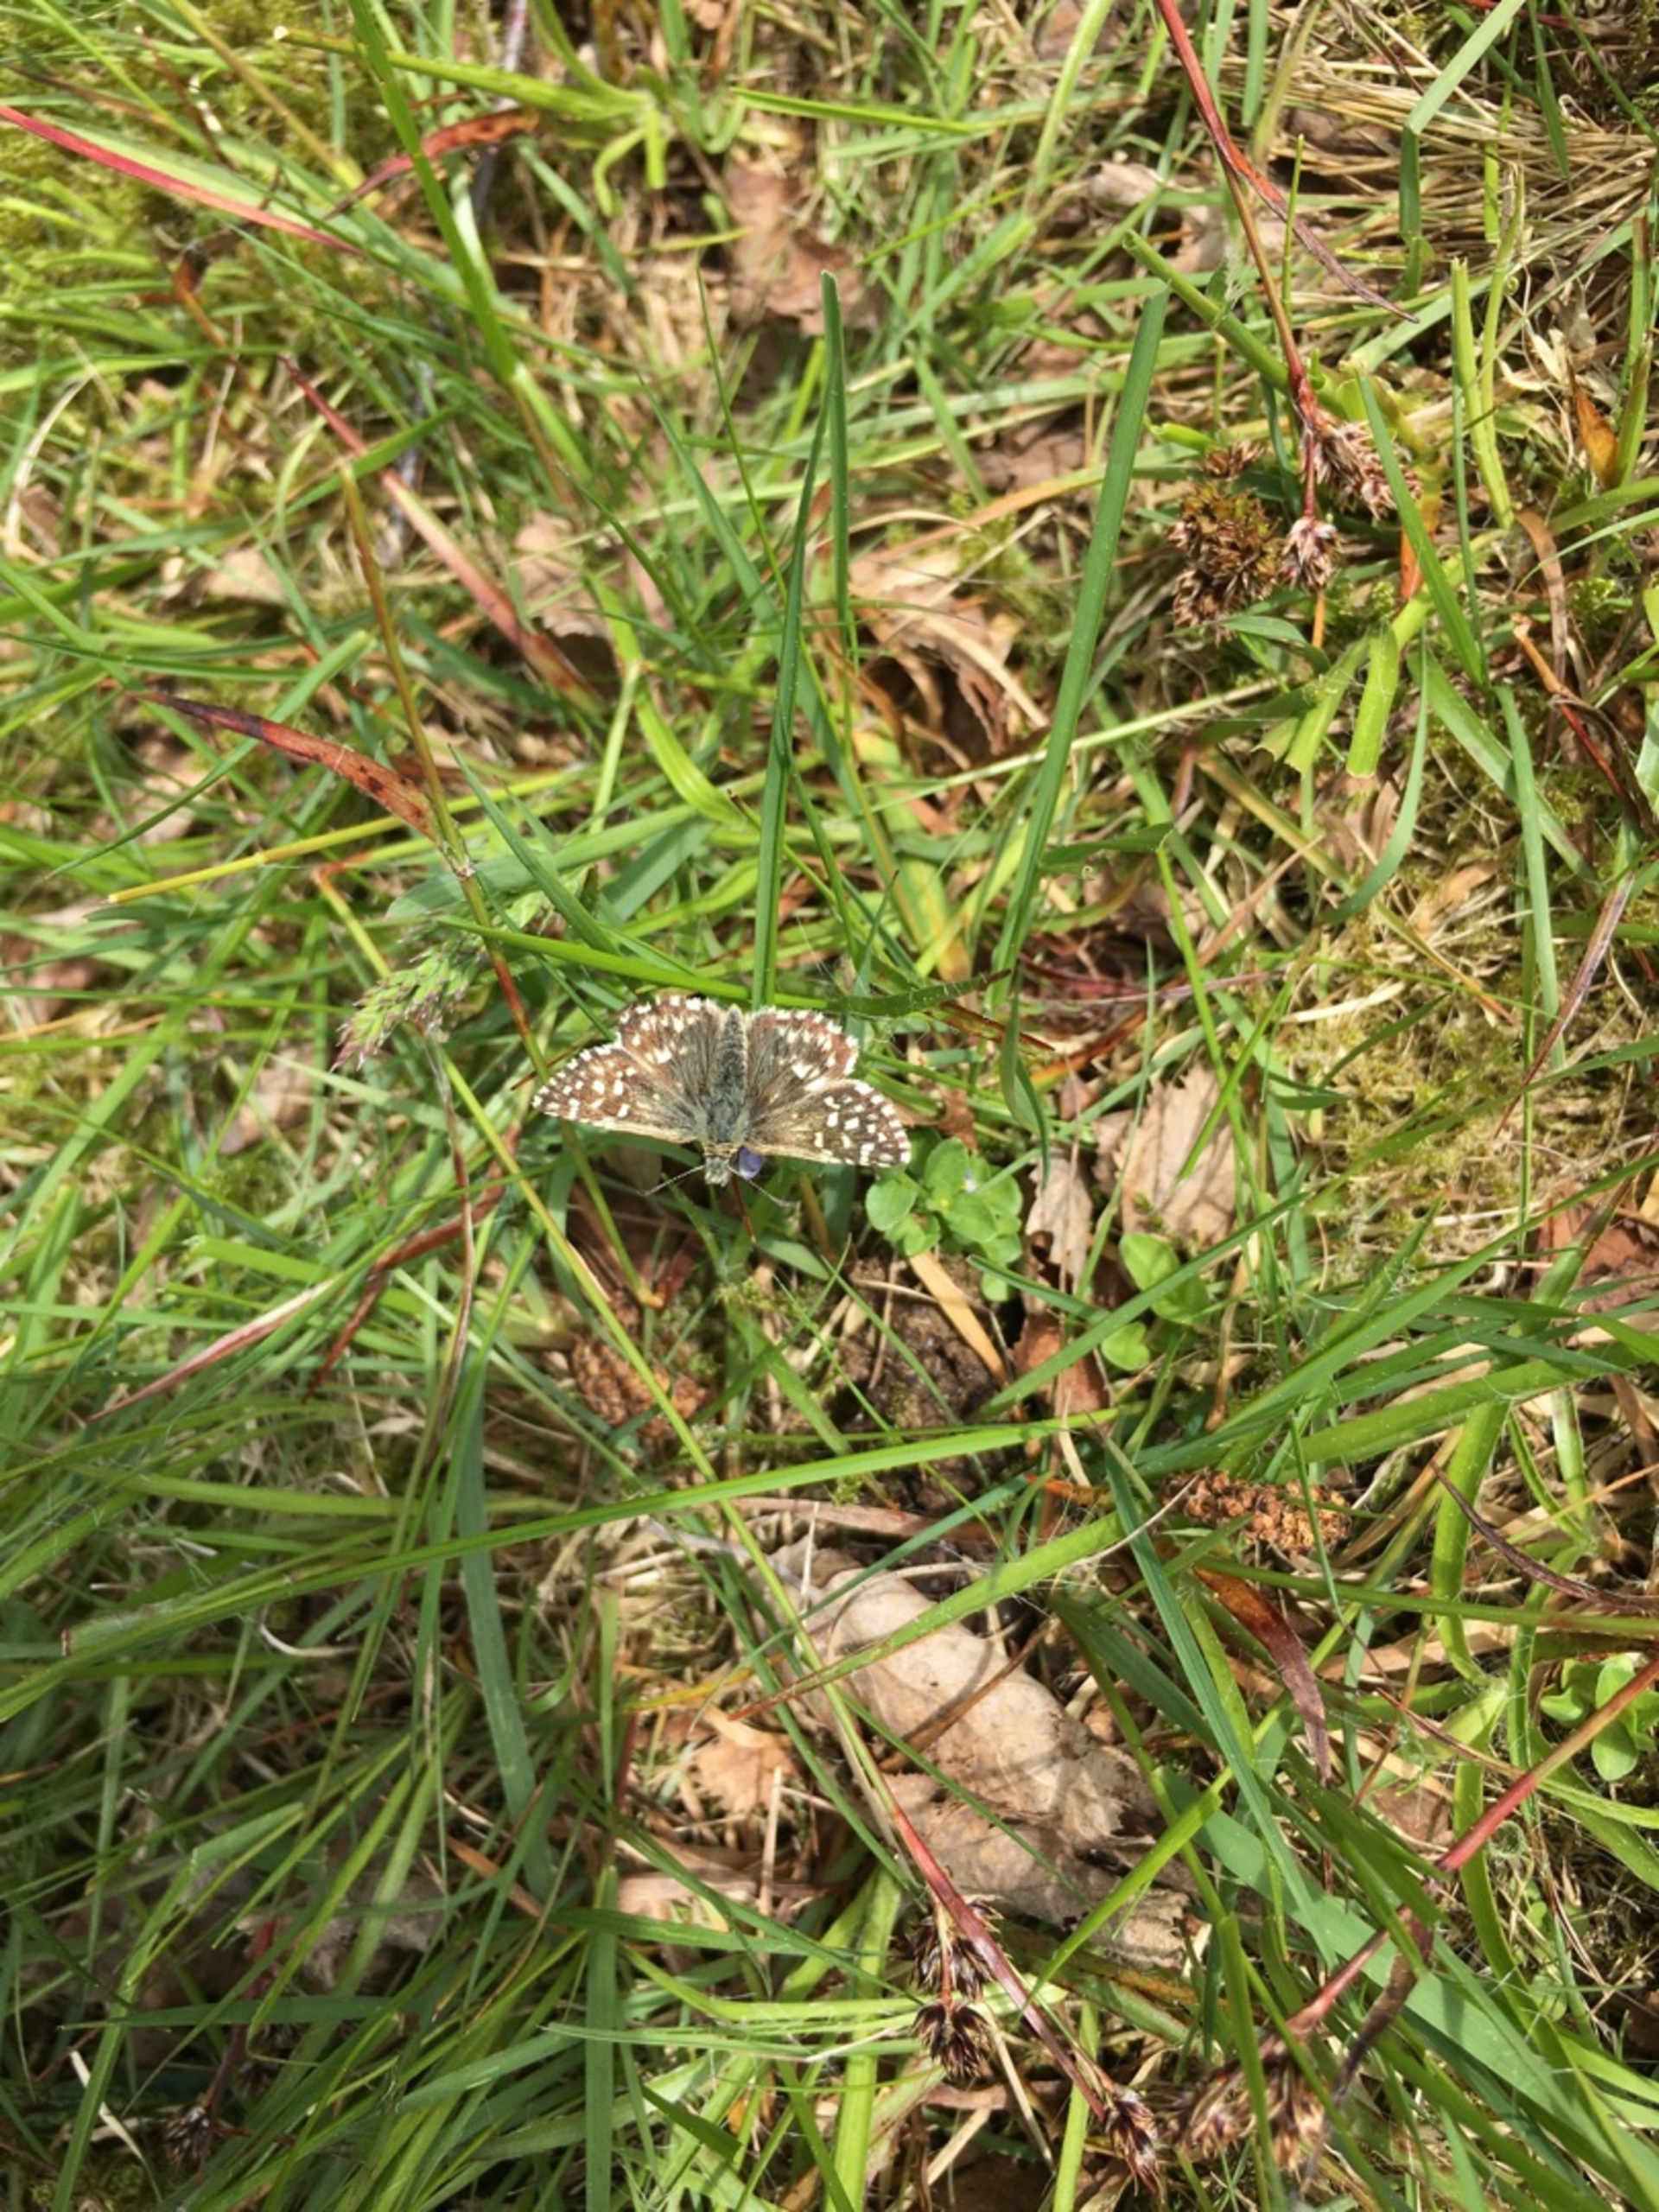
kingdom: Animalia
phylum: Arthropoda
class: Insecta
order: Lepidoptera
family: Hesperiidae
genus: Pyrgus
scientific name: Pyrgus malvae
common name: Spættet bredpande
